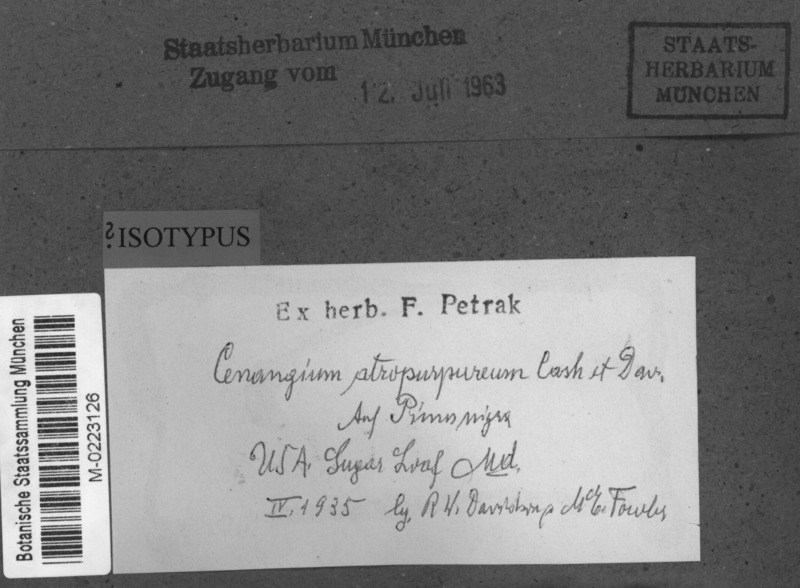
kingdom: Fungi
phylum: Ascomycota
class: Leotiomycetes
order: Helotiales
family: Cenangiaceae
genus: Cenangium
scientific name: Cenangium
